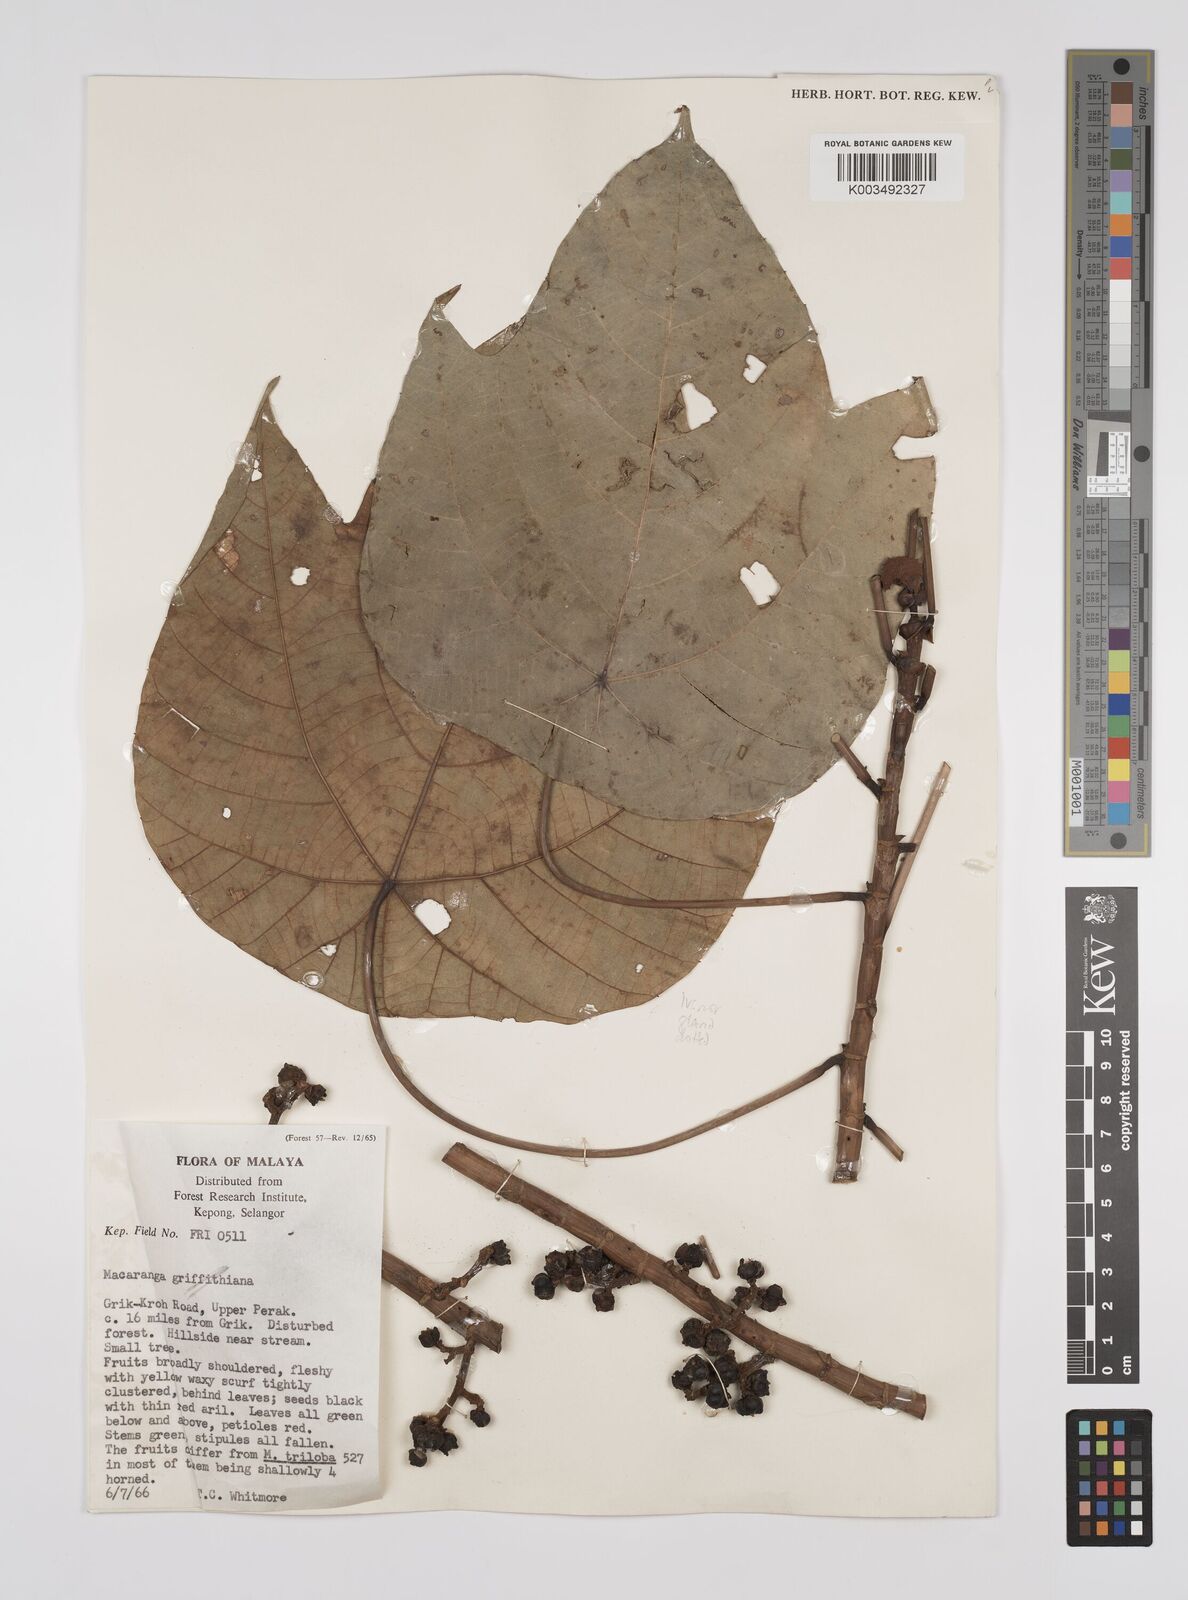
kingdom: Plantae
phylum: Tracheophyta
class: Magnoliopsida
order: Malpighiales
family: Euphorbiaceae
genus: Macaranga
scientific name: Macaranga hullettii
